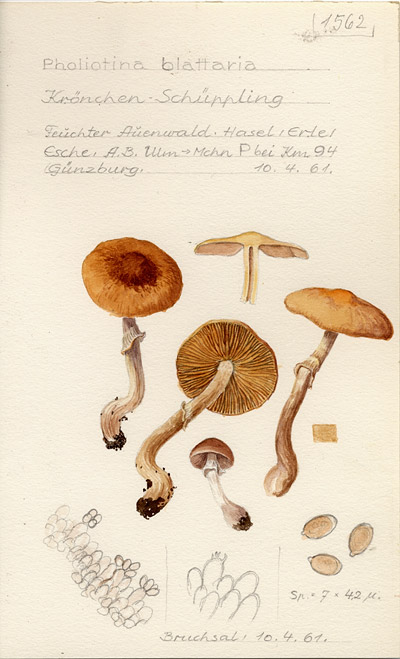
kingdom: Fungi
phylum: Basidiomycota
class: Agaricomycetes
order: Agaricales
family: Bolbitiaceae
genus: Pholiotina
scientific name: Pholiotina blattaria
